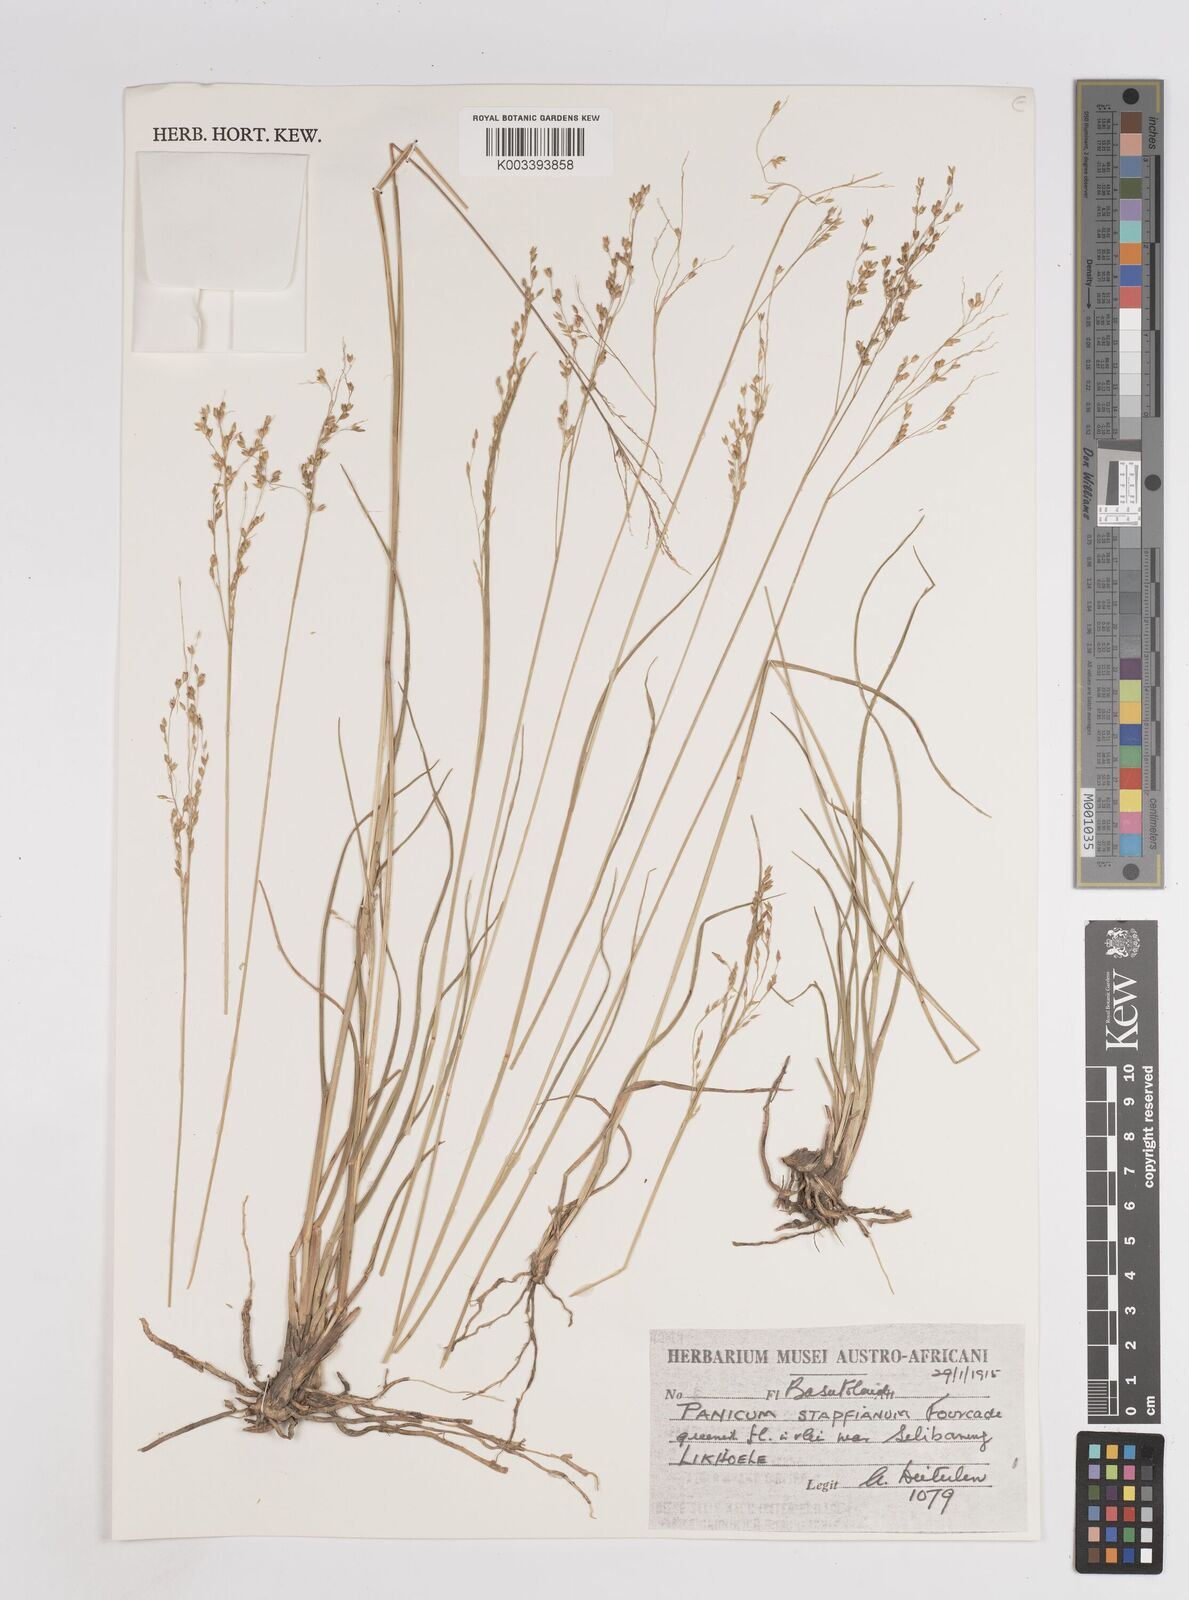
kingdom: Plantae
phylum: Tracheophyta
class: Liliopsida
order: Poales
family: Poaceae
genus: Panicum
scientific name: Panicum stapfianum
